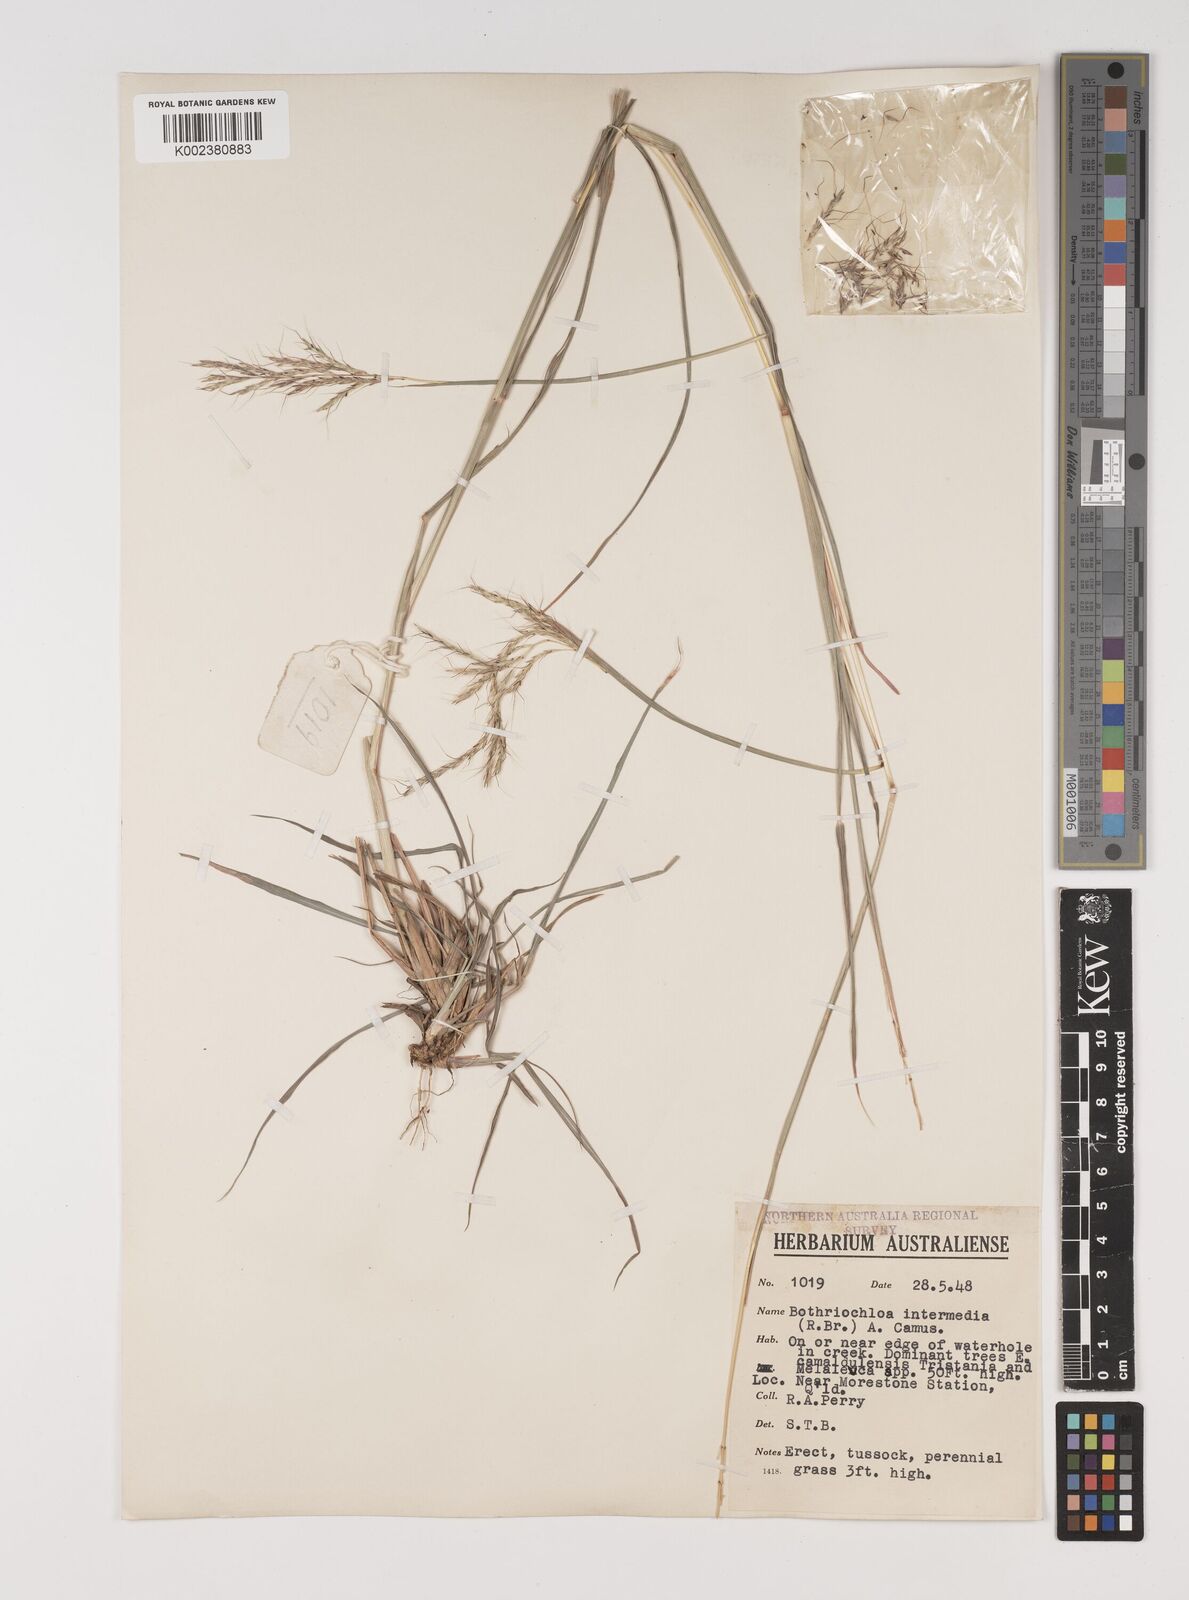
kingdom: Plantae
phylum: Tracheophyta
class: Liliopsida
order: Poales
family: Poaceae
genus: Bothriochloa
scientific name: Bothriochloa bladhii
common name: Caucasian bluestem
